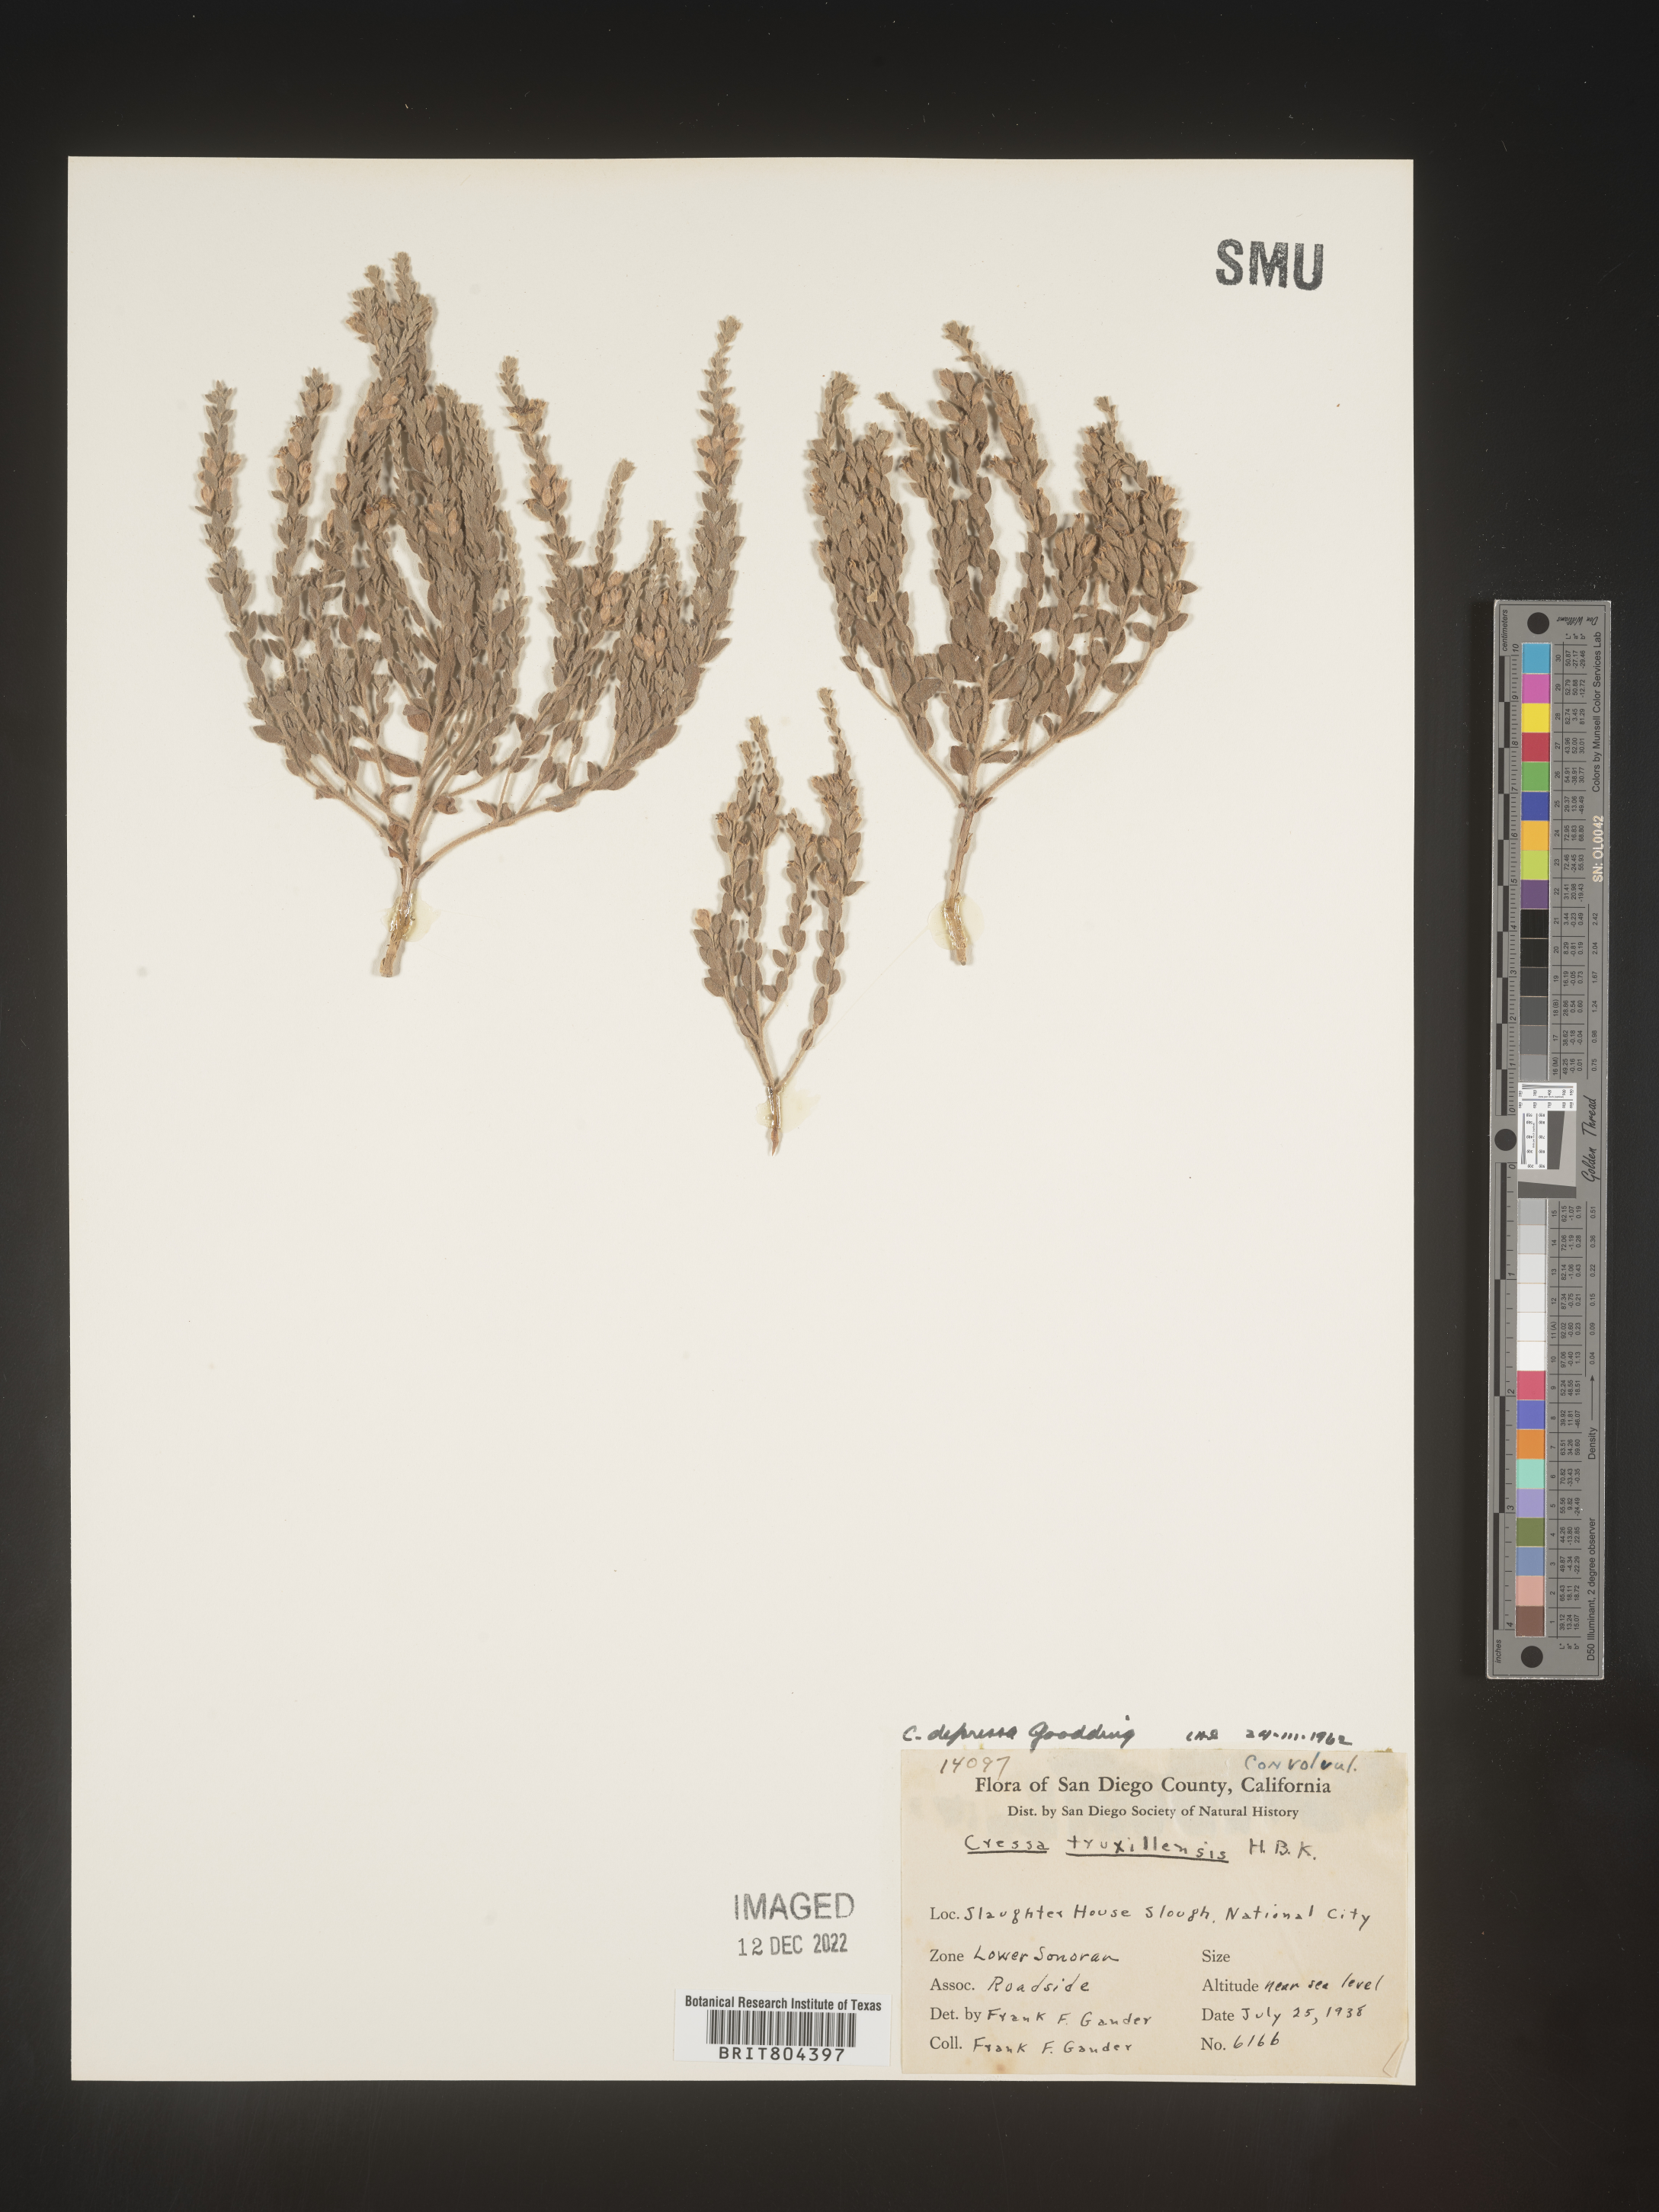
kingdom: Plantae
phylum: Tracheophyta
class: Magnoliopsida
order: Solanales
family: Convolvulaceae
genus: Cressa
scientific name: Cressa
